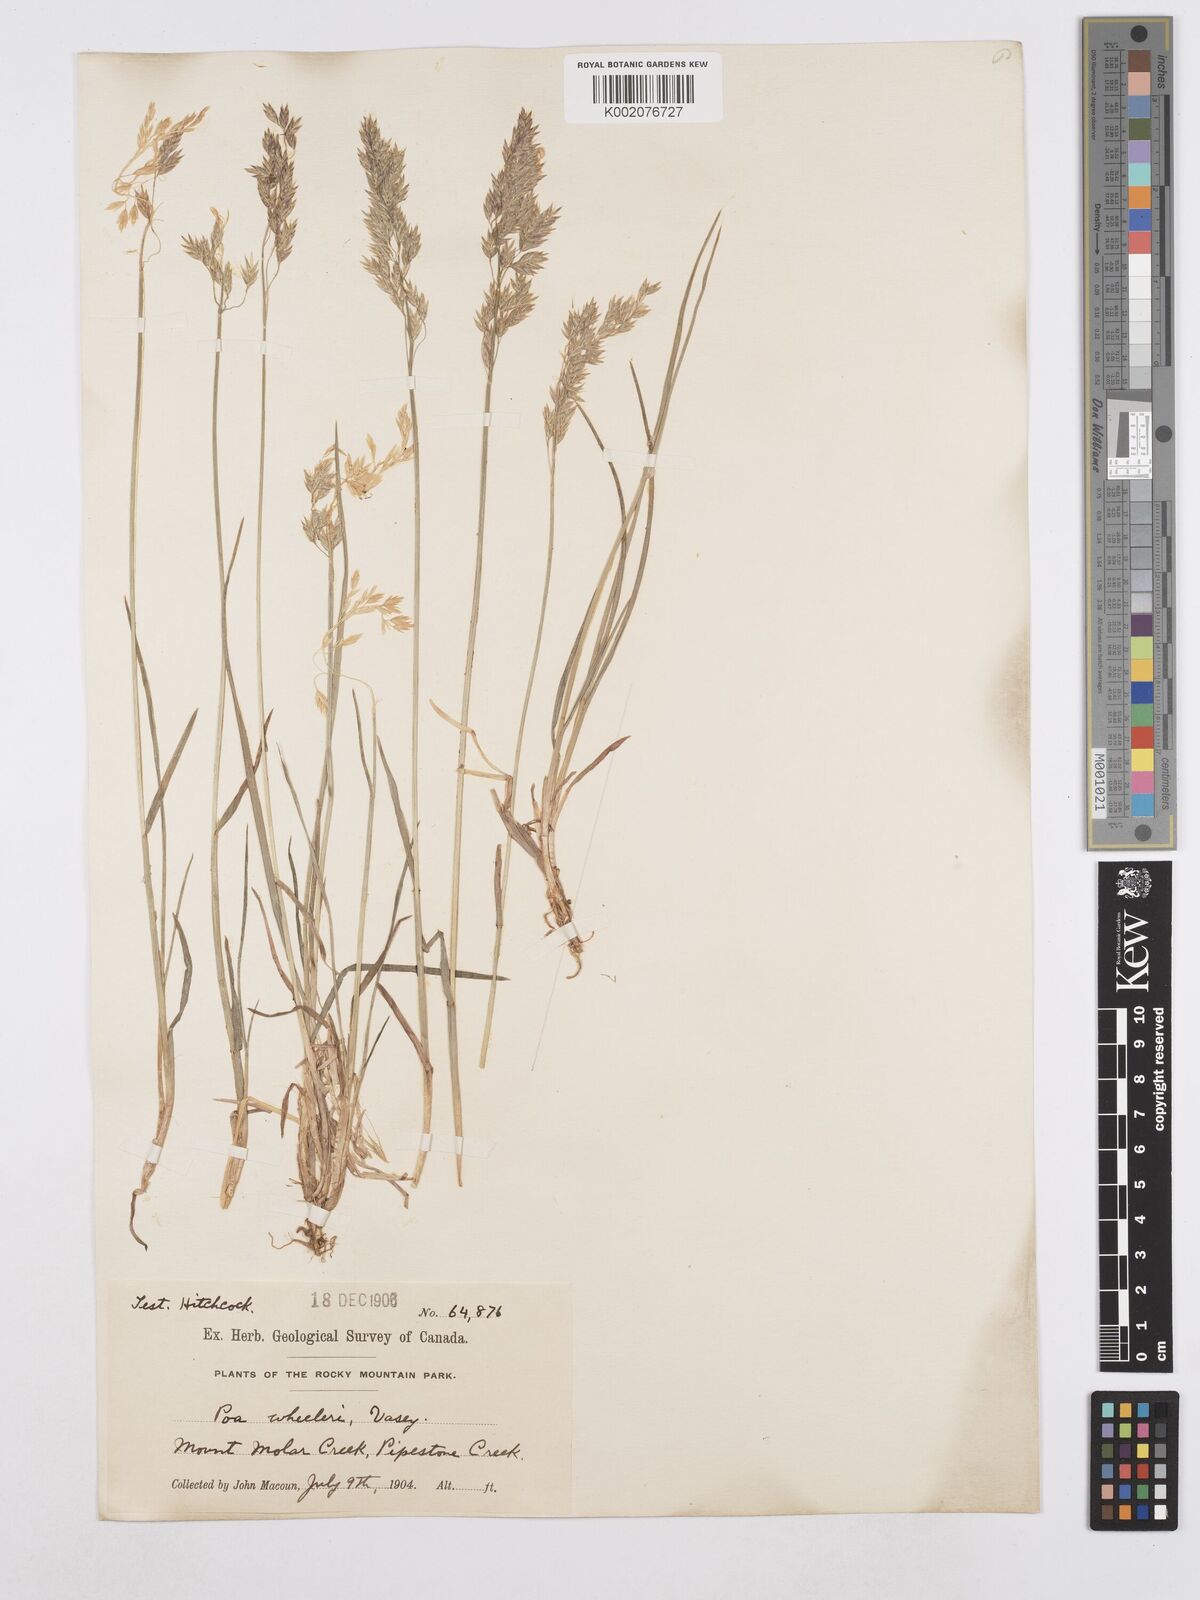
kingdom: Plantae
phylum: Tracheophyta
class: Liliopsida
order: Poales
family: Poaceae
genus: Poa
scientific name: Poa wheeleri
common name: Wheeler's bluegrass
